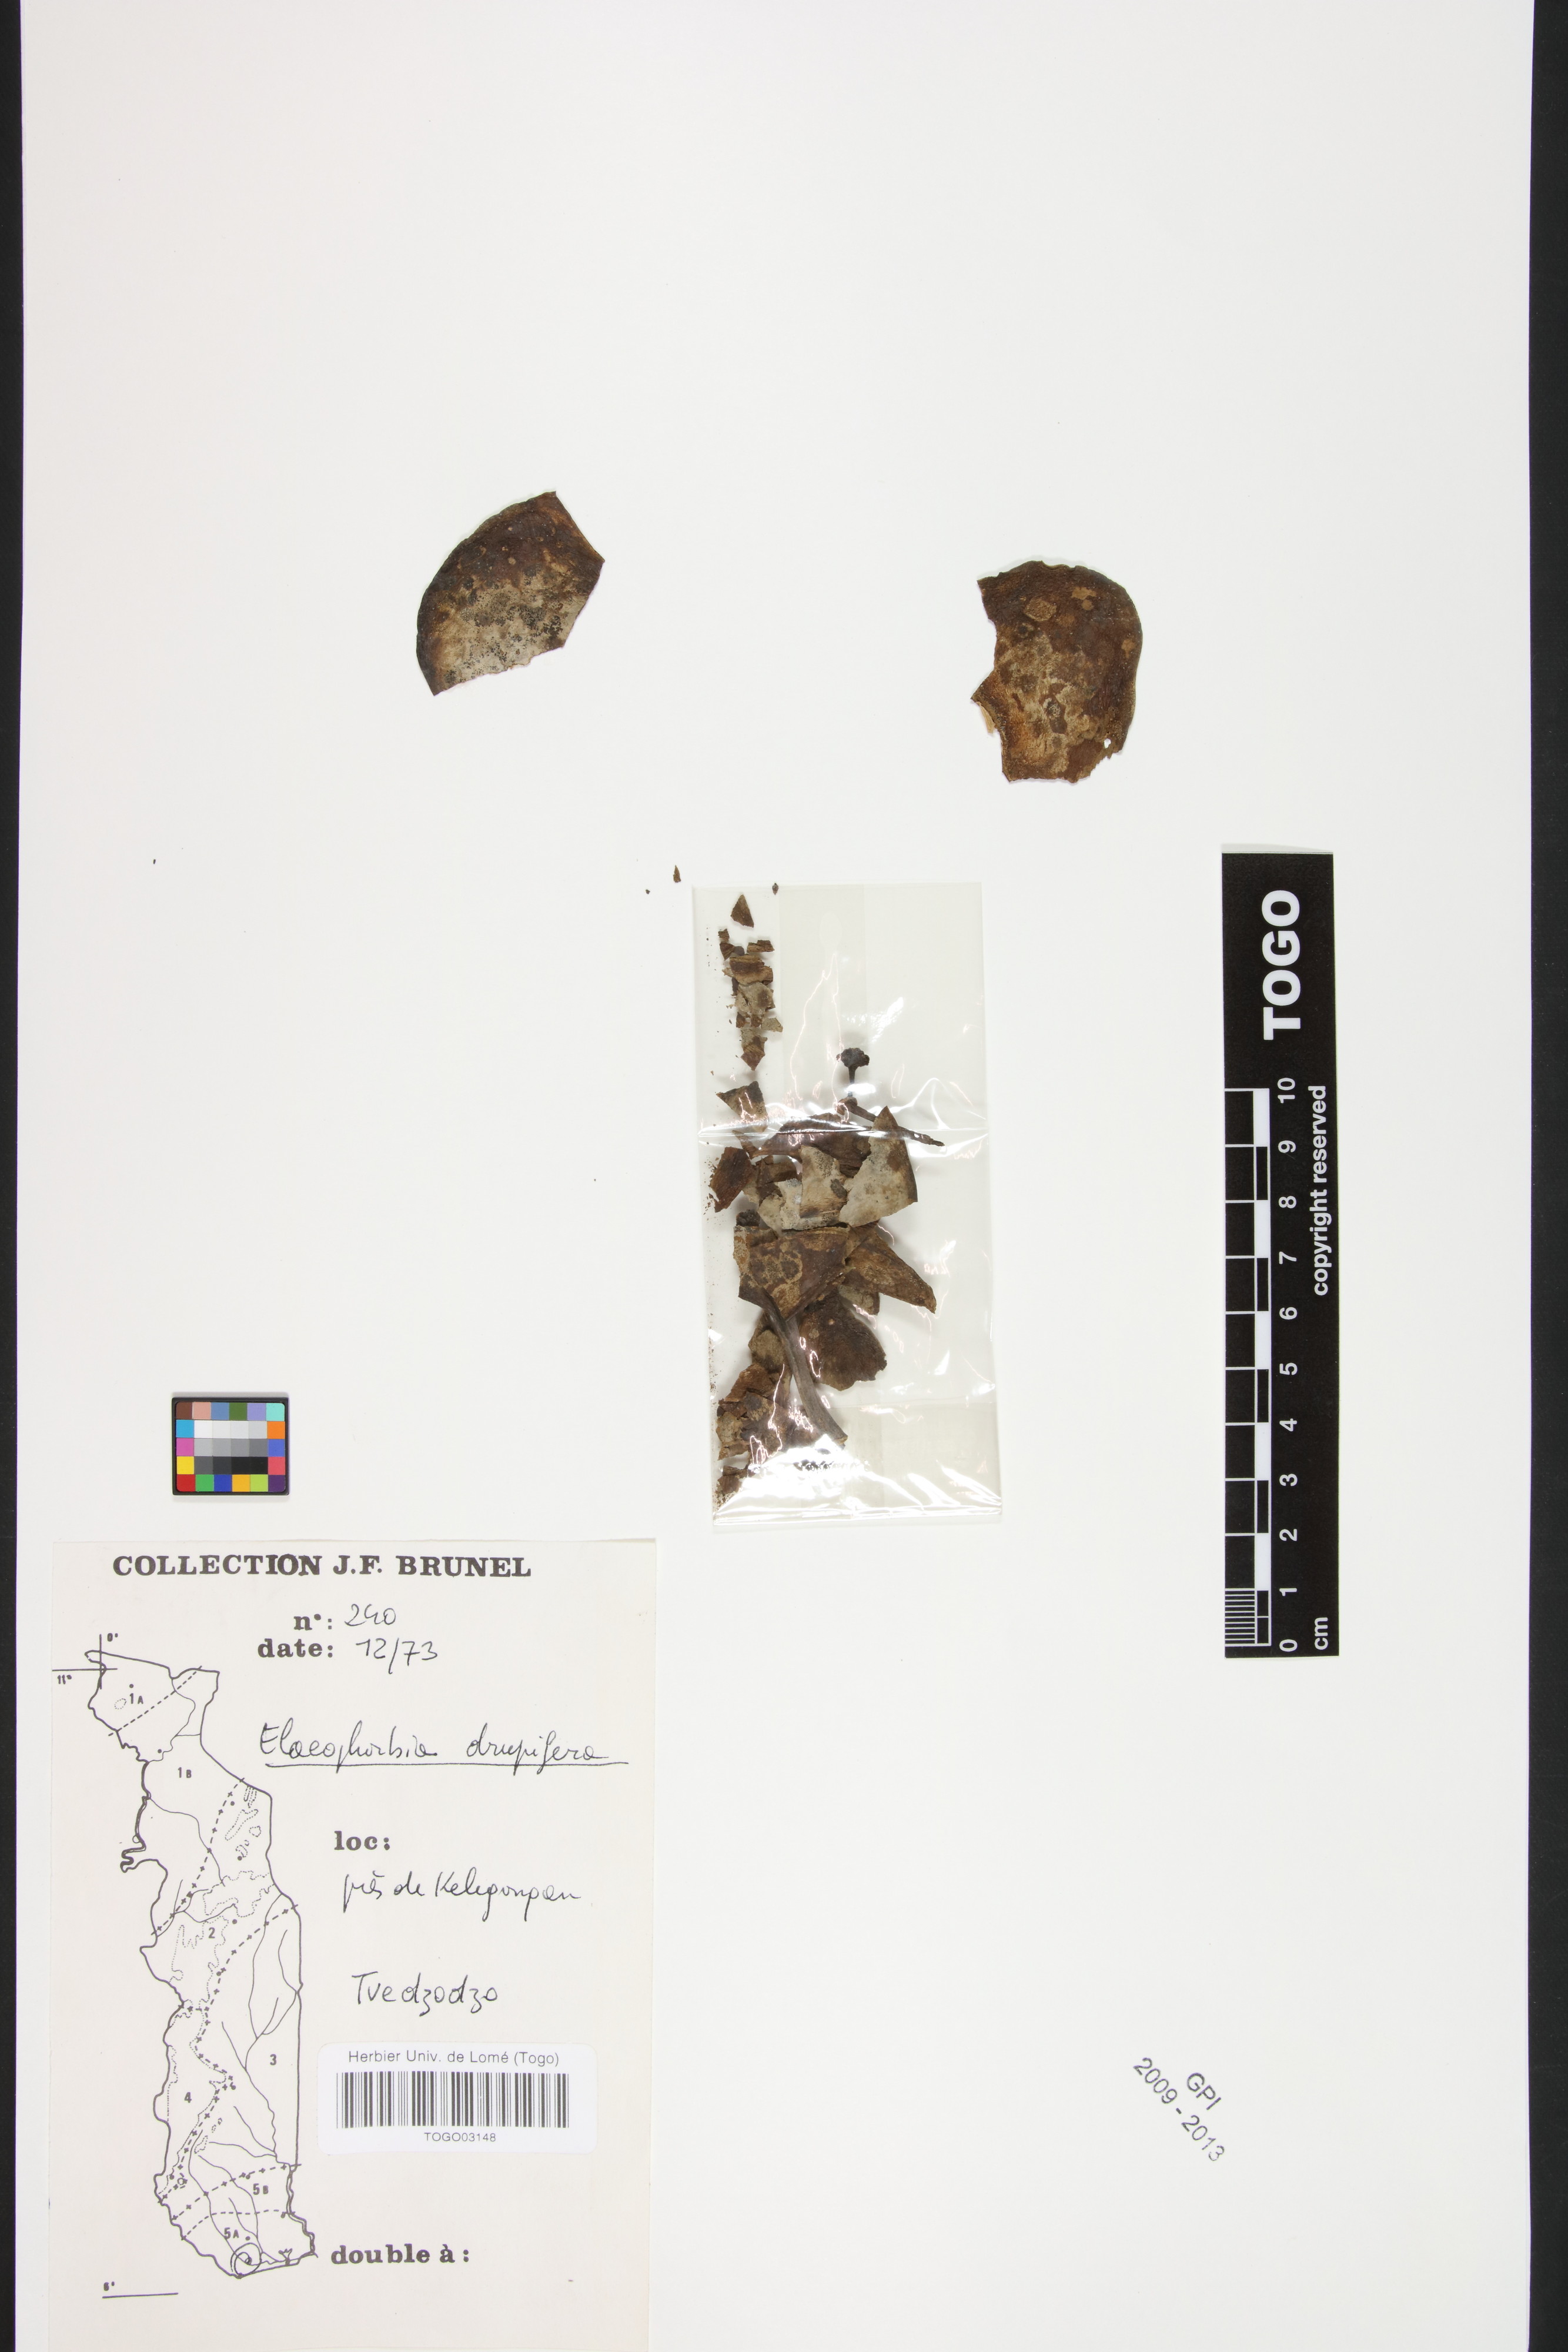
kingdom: Plantae
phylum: Tracheophyta
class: Magnoliopsida
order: Malpighiales
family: Euphorbiaceae
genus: Euphorbia
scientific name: Euphorbia
